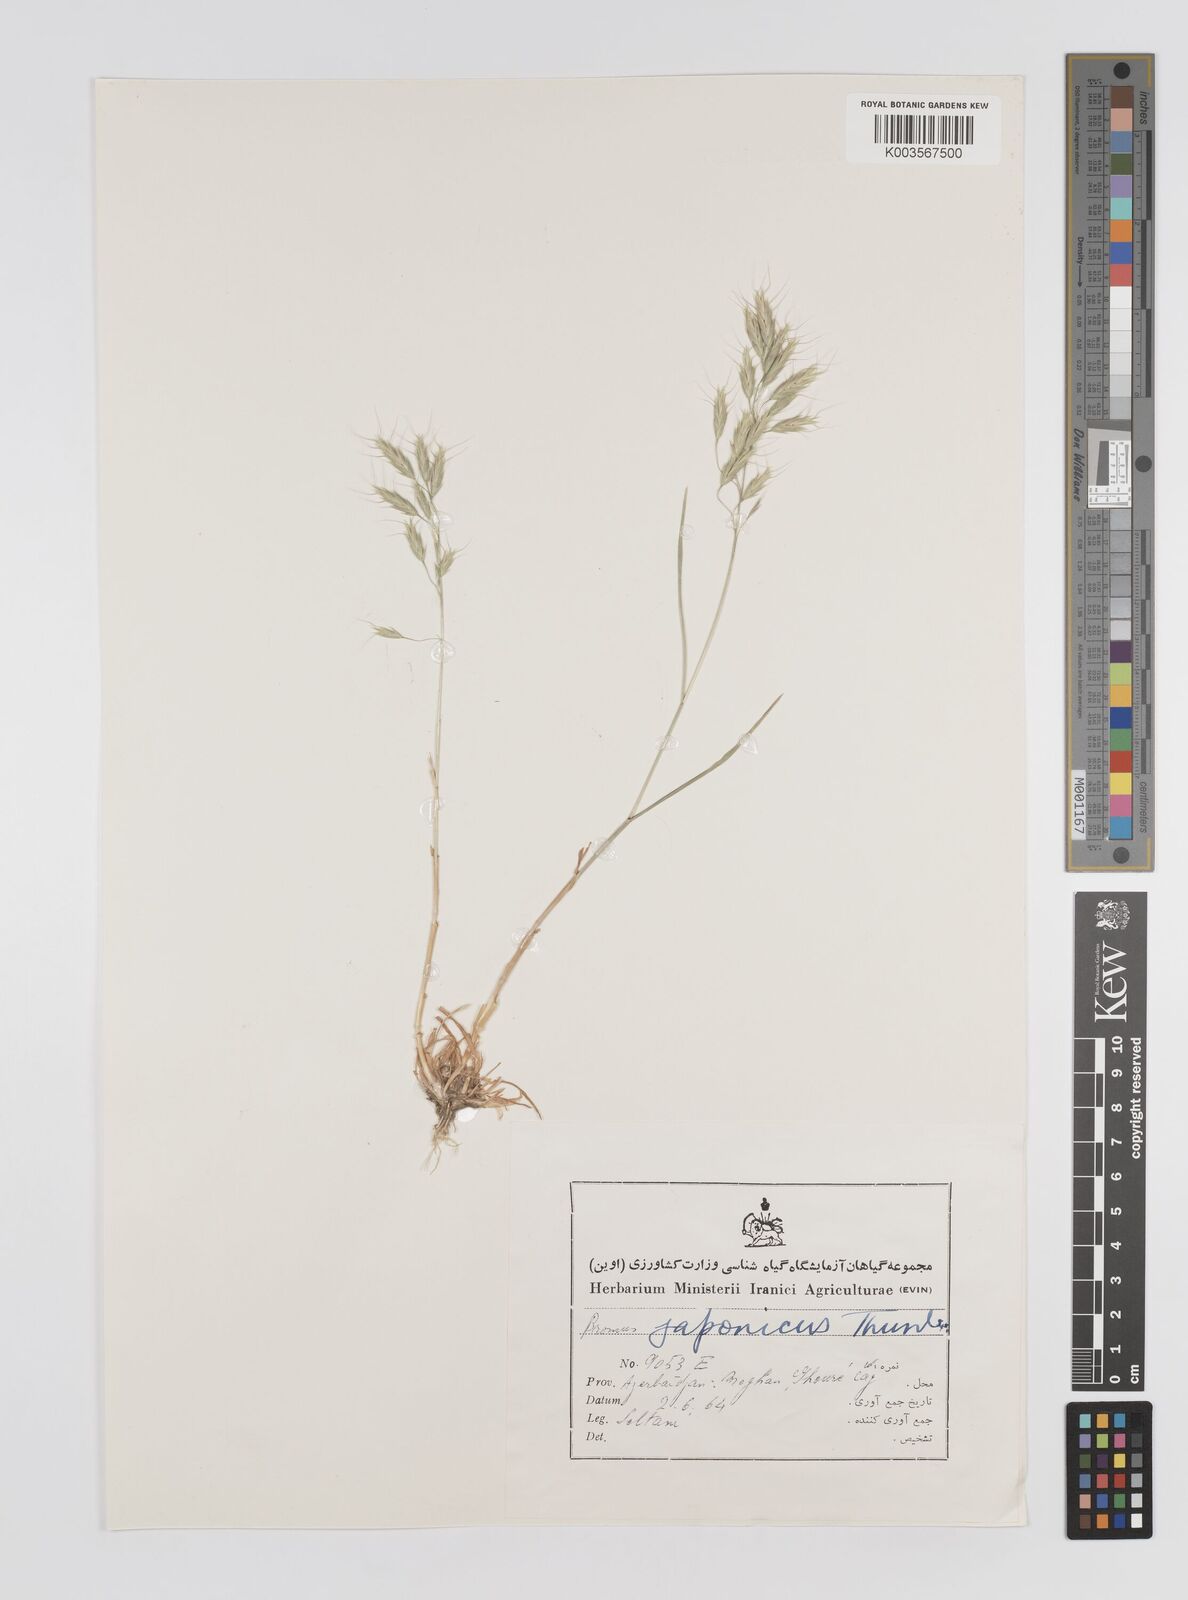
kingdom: Plantae
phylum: Tracheophyta
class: Liliopsida
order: Poales
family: Poaceae
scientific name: Poaceae
